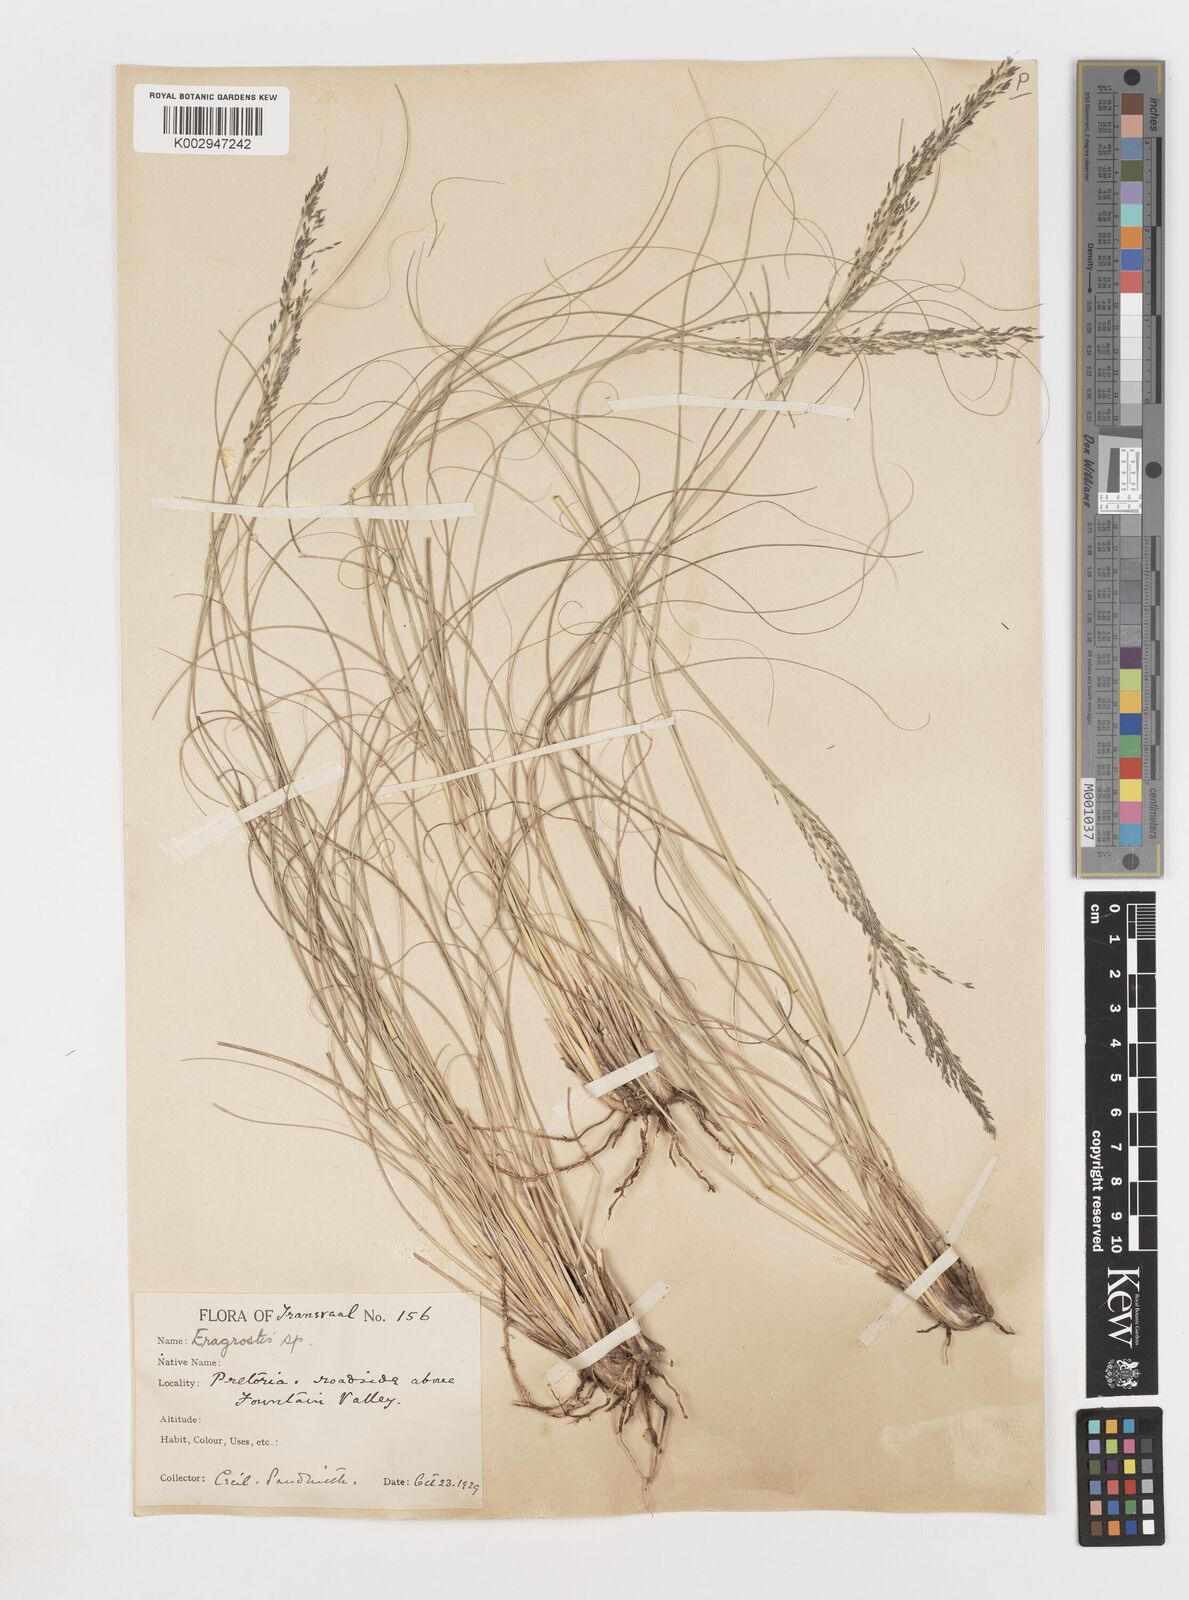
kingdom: Plantae
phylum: Tracheophyta
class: Liliopsida
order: Poales
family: Poaceae
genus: Eragrostis
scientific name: Eragrostis
